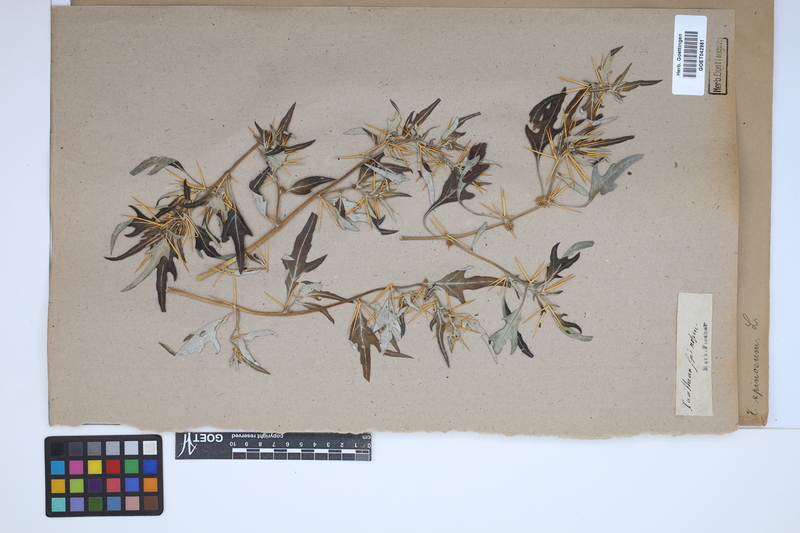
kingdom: Plantae
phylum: Tracheophyta
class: Magnoliopsida
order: Asterales
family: Asteraceae
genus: Xanthium
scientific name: Xanthium spinosum
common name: Spiny cocklebur
